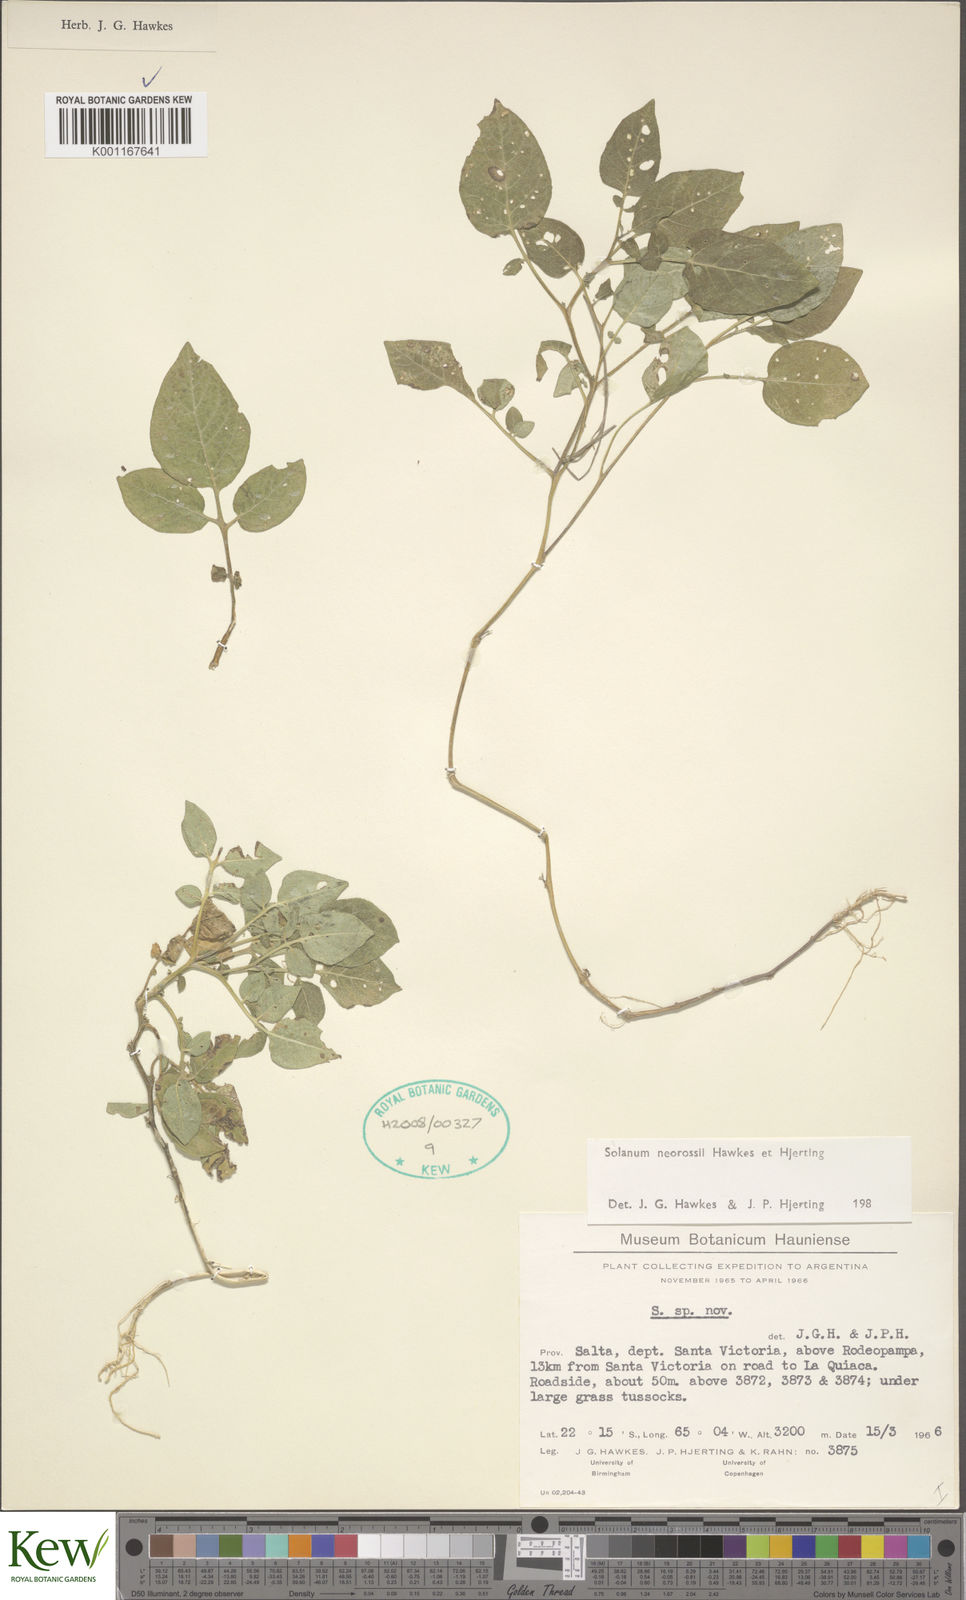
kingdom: Plantae
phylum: Tracheophyta
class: Magnoliopsida
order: Solanales
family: Solanaceae
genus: Solanum
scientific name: Solanum neorossii
